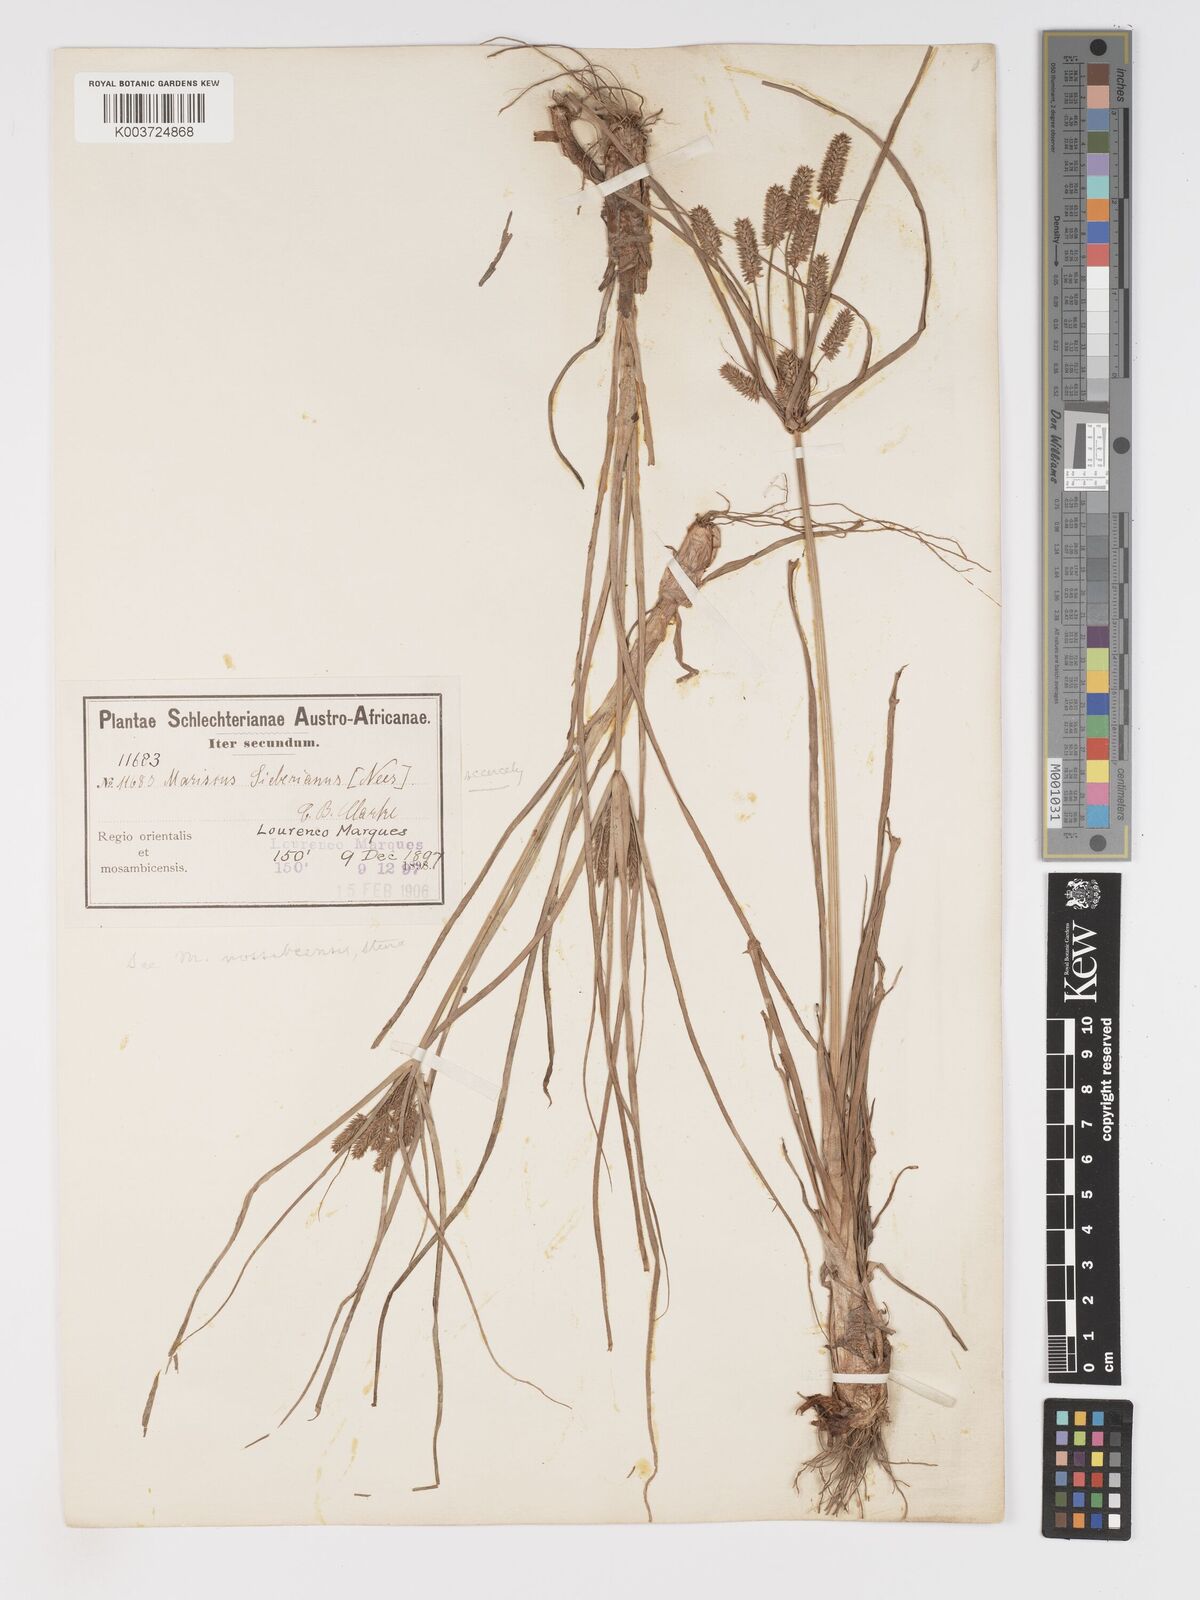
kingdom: Plantae
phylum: Tracheophyta
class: Liliopsida
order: Poales
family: Cyperaceae
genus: Cyperus
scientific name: Cyperus chersinus
